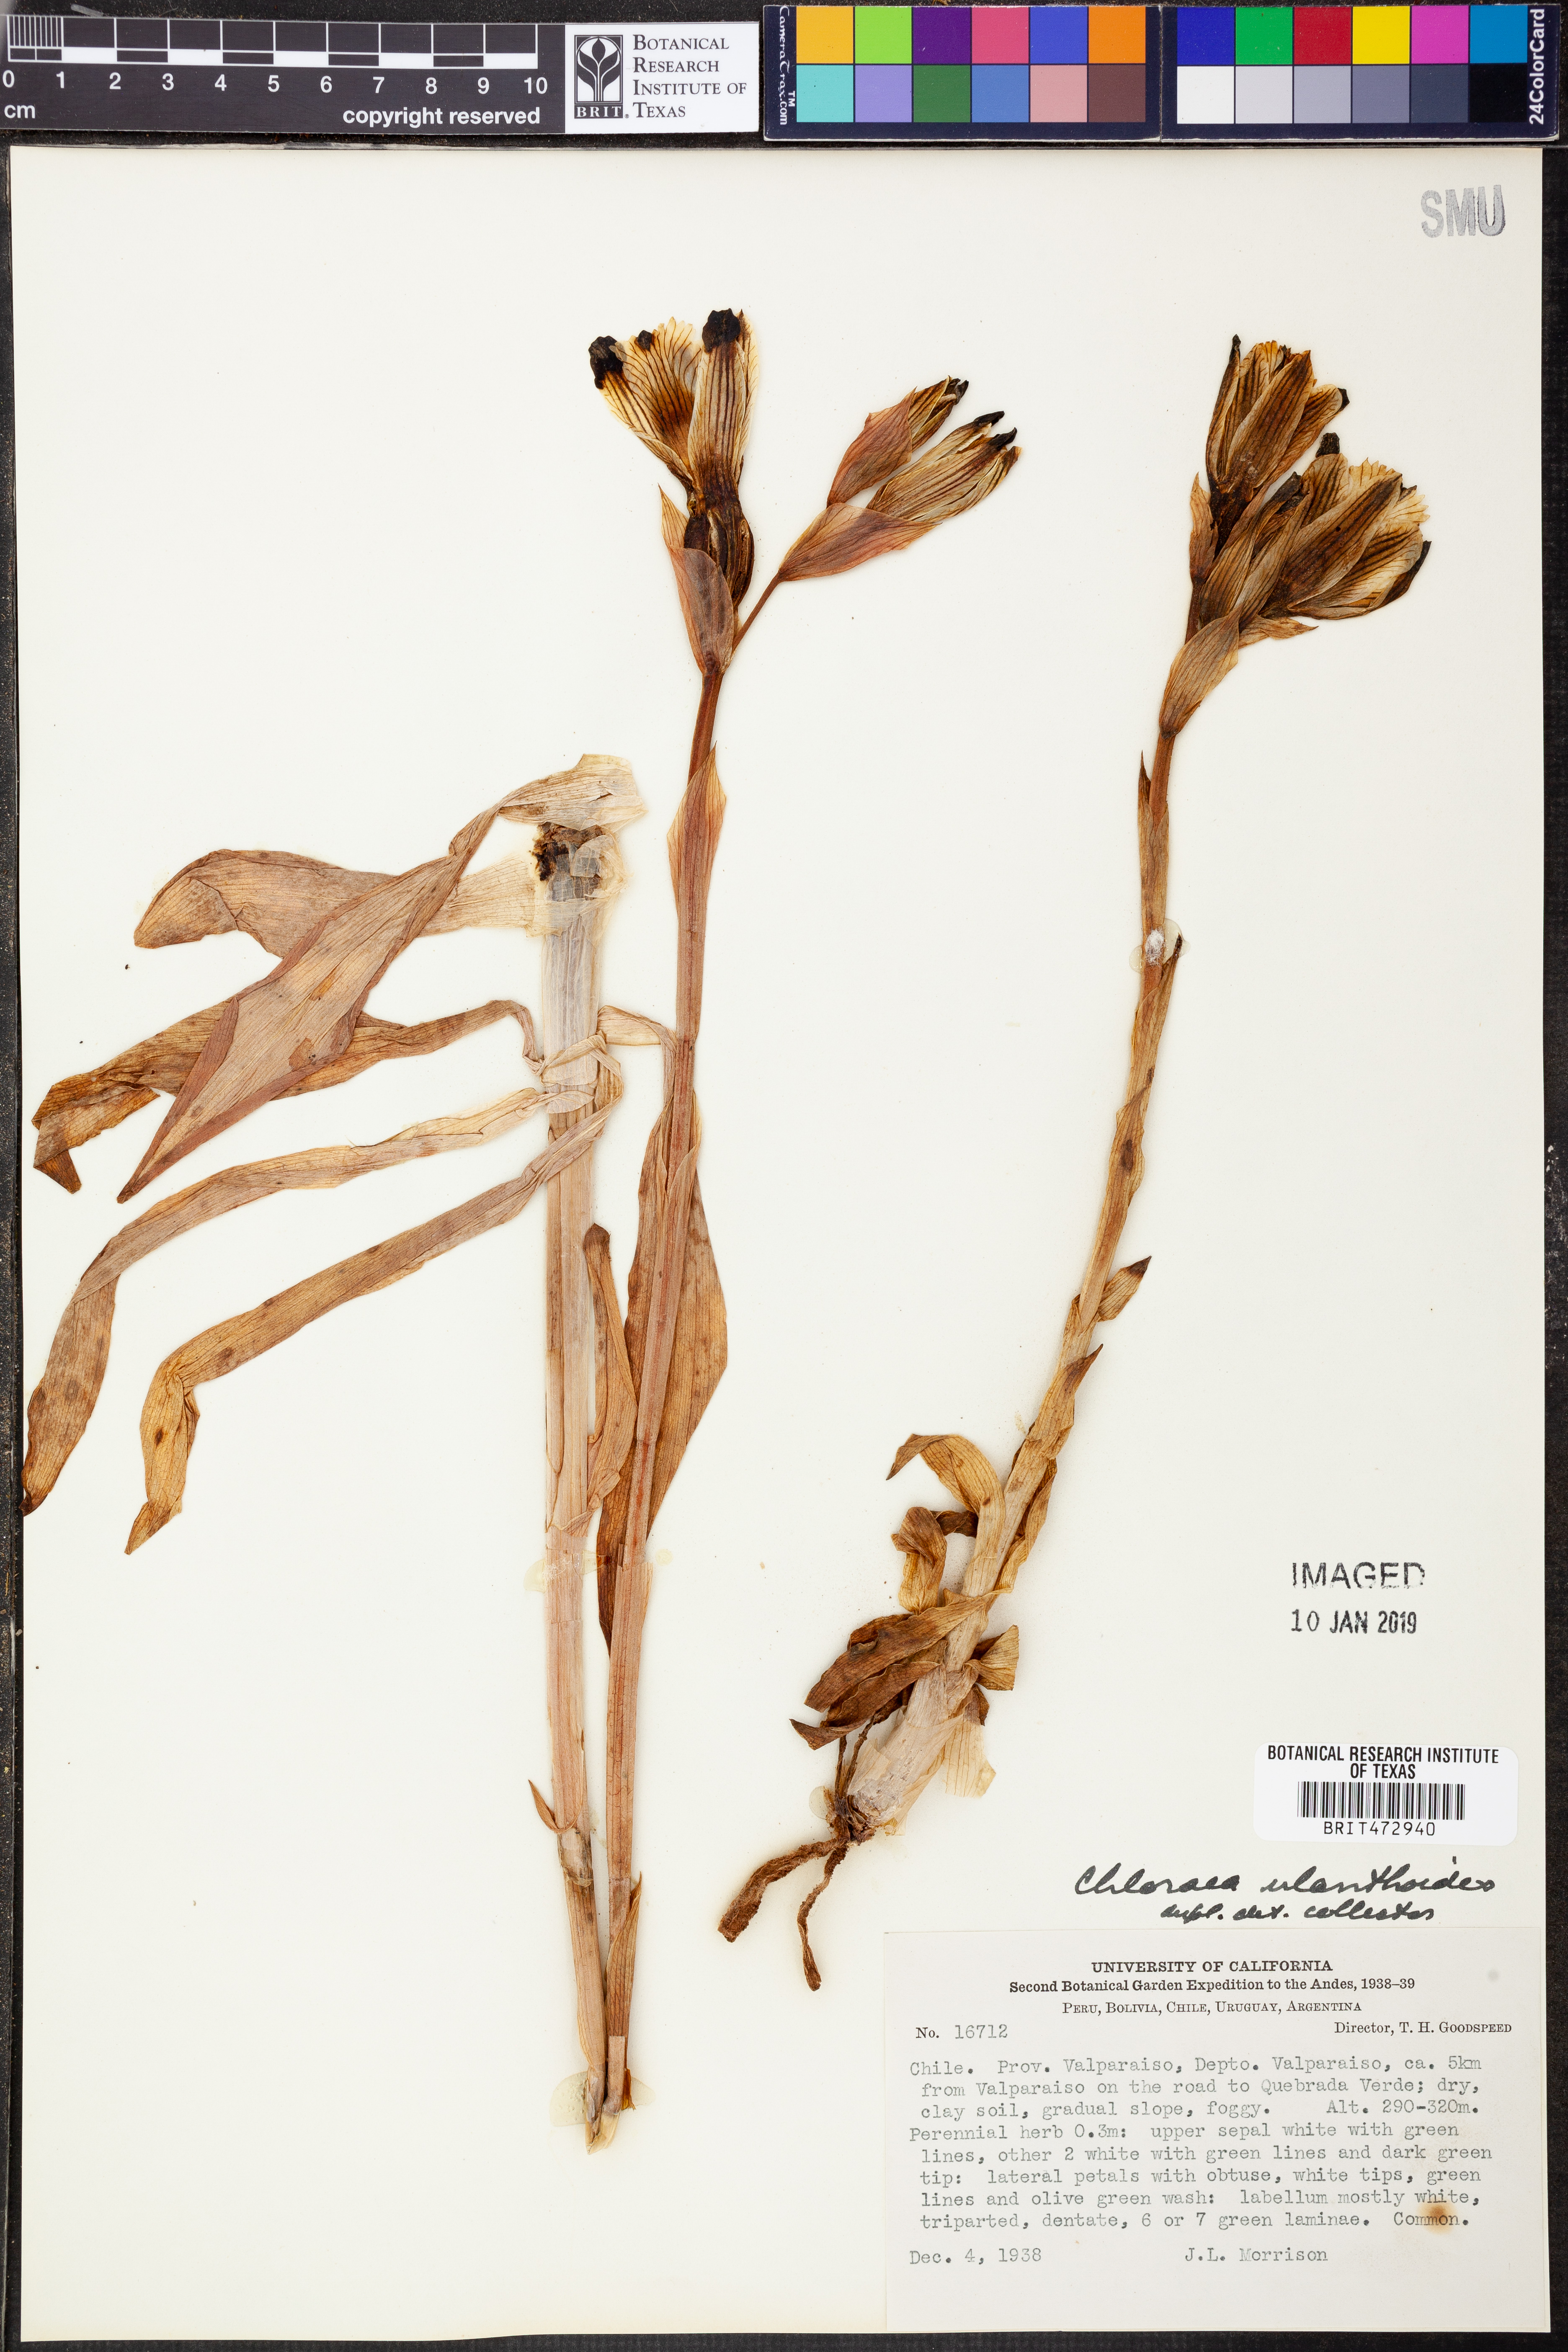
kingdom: Plantae
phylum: Tracheophyta
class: Liliopsida
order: Asparagales
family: Orchidaceae
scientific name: Orchidaceae
